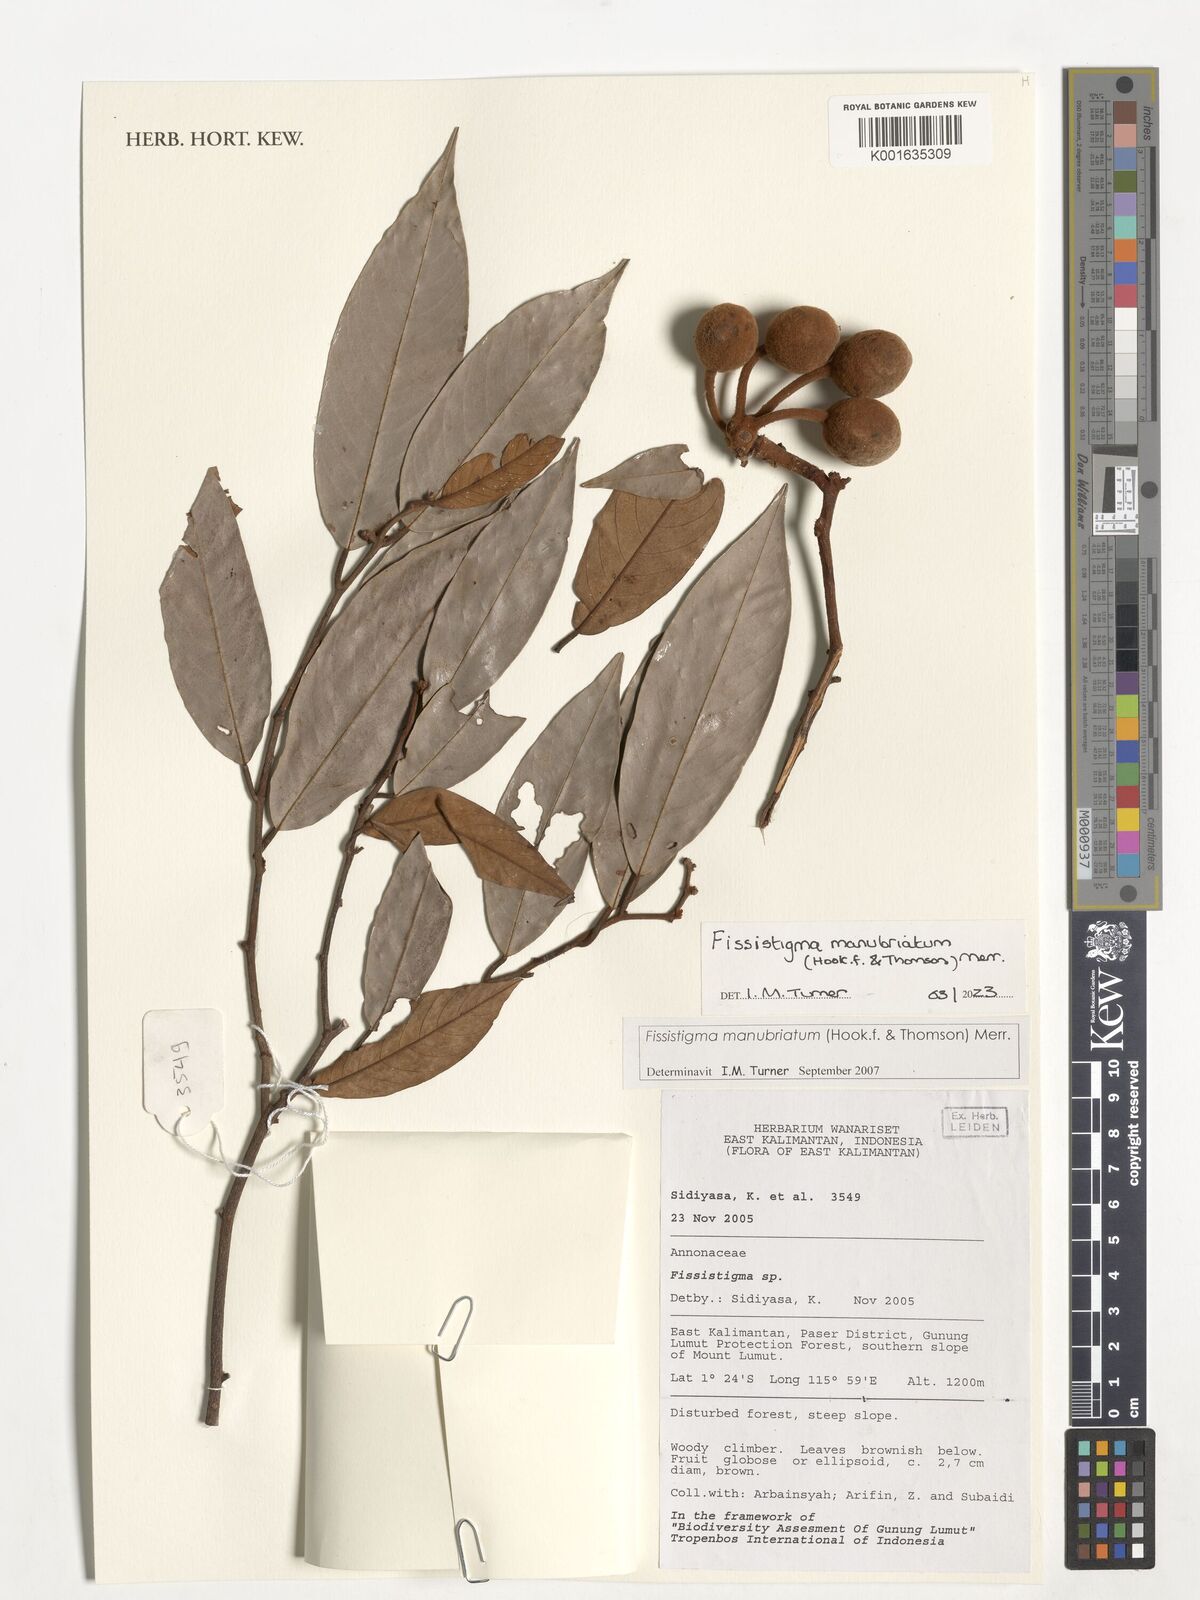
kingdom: Plantae
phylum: Tracheophyta
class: Magnoliopsida
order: Magnoliales
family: Annonaceae
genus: Fissistigma
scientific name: Fissistigma manubriatum
